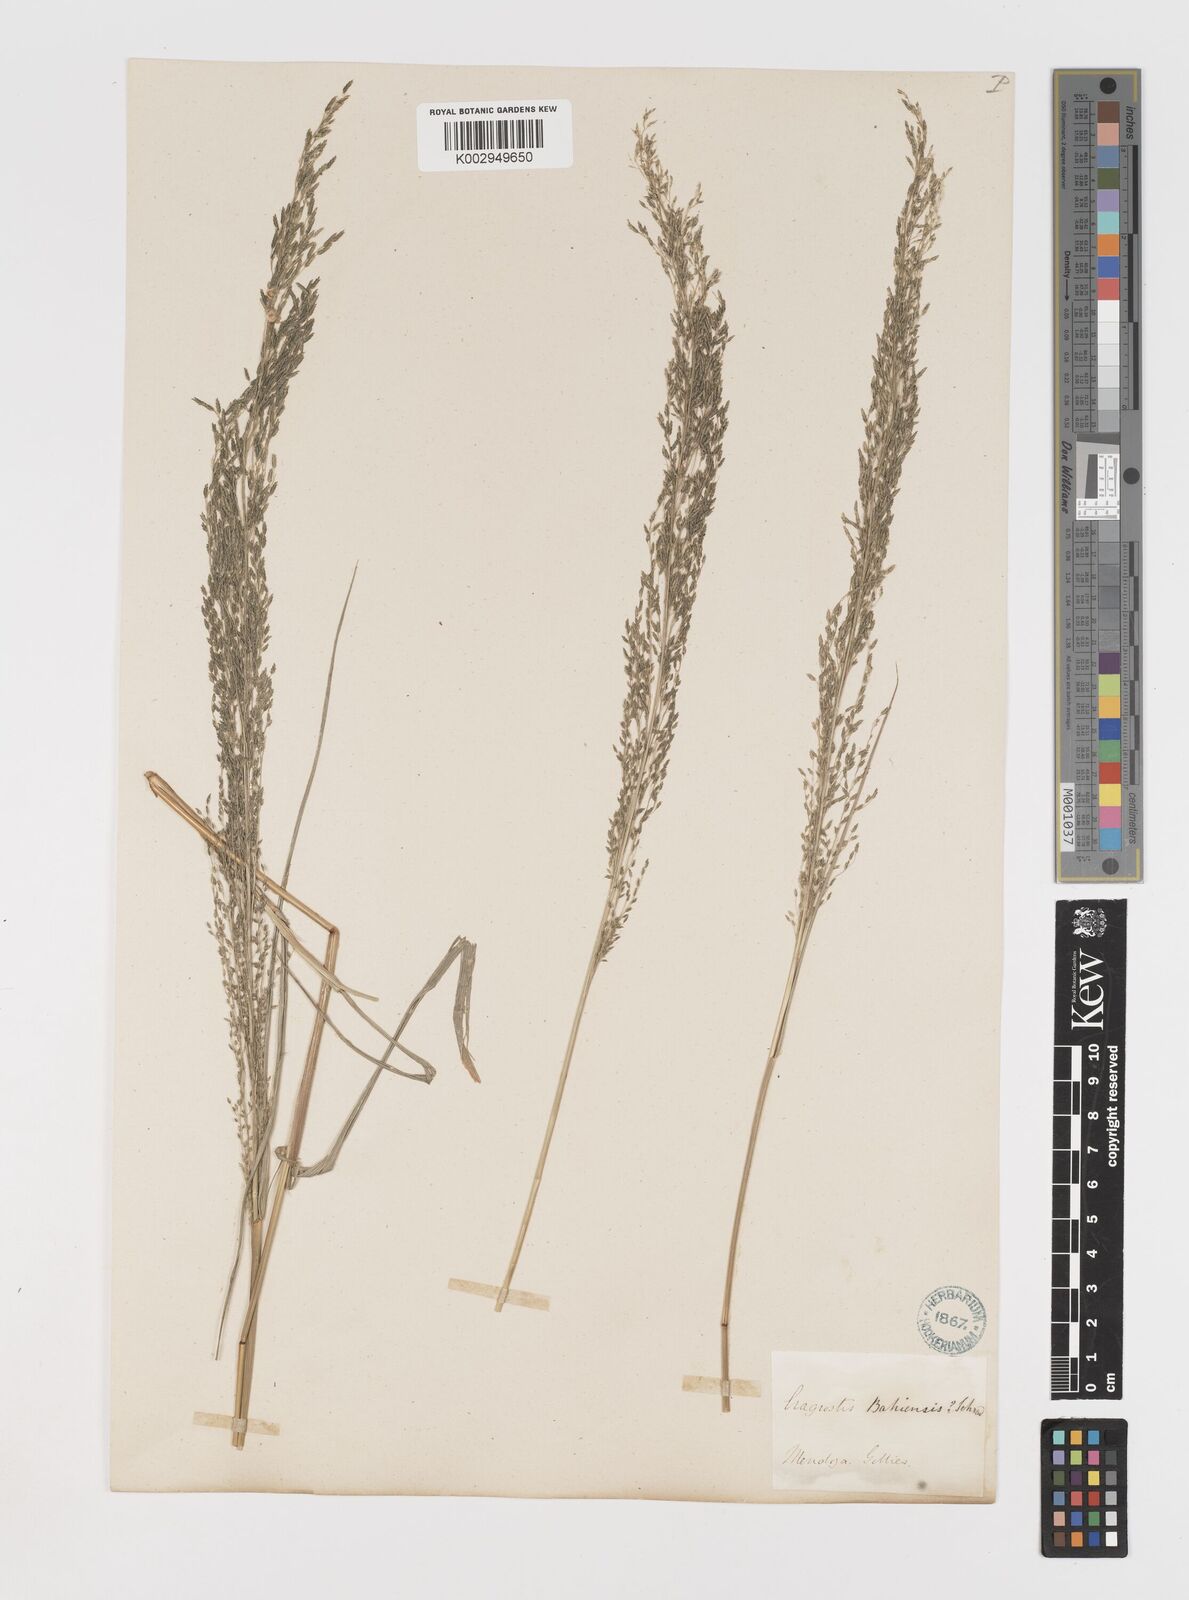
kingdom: Plantae
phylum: Tracheophyta
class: Liliopsida
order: Poales
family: Poaceae
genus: Eragrostis
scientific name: Eragrostis mexicana
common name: Mexican love grass
